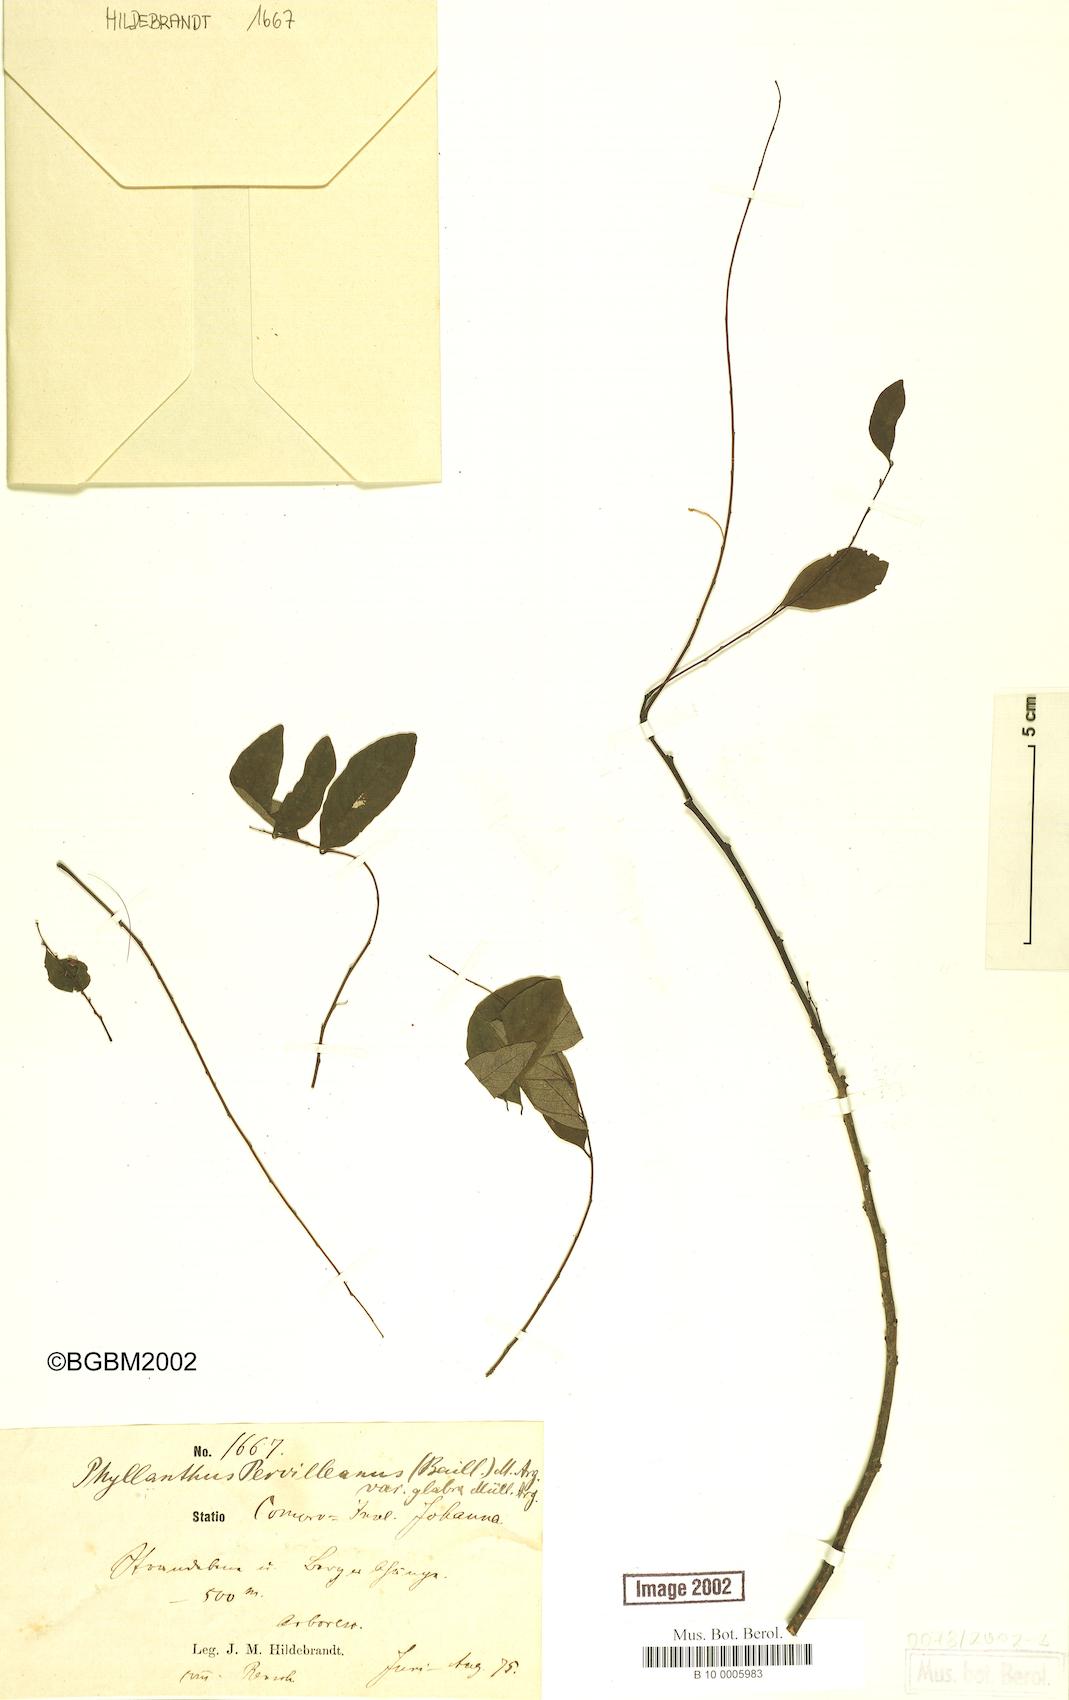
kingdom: Plantae
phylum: Tracheophyta
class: Magnoliopsida
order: Malpighiales
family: Phyllanthaceae
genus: Phyllanthus
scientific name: Phyllanthus pervilleanus
